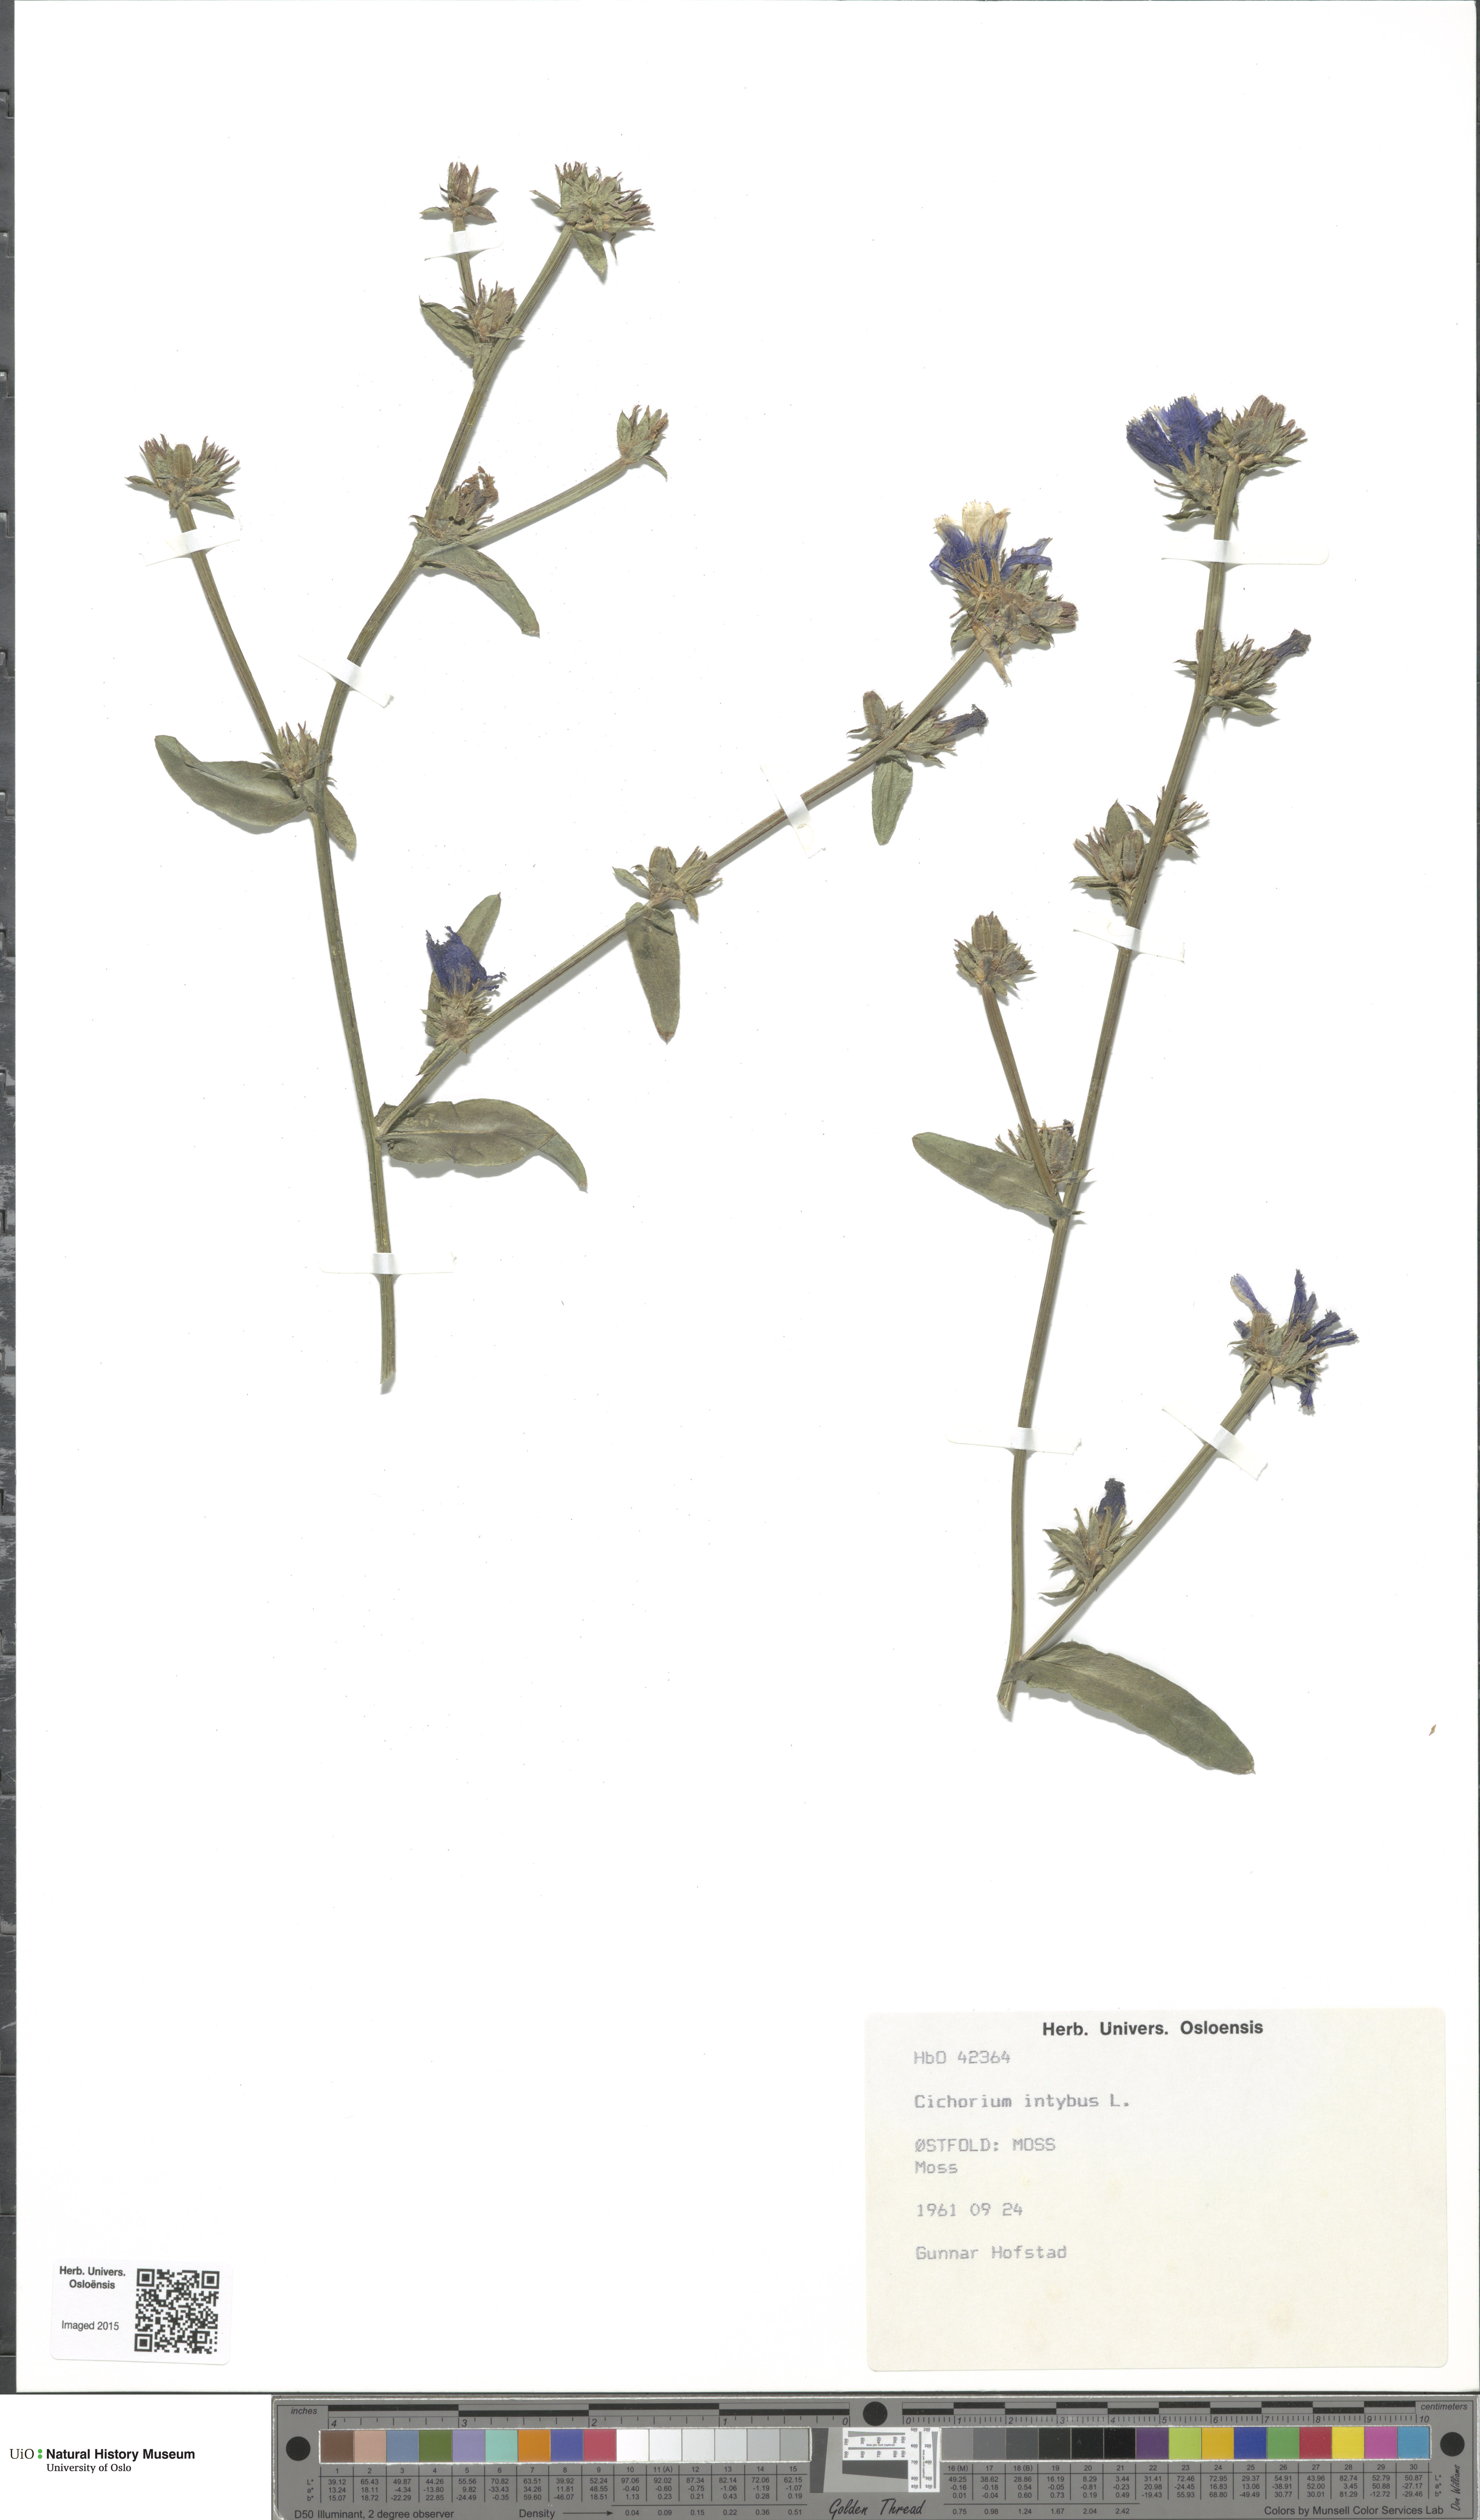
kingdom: Plantae
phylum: Tracheophyta
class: Magnoliopsida
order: Asterales
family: Asteraceae
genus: Cichorium
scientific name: Cichorium intybus
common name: Chicory
